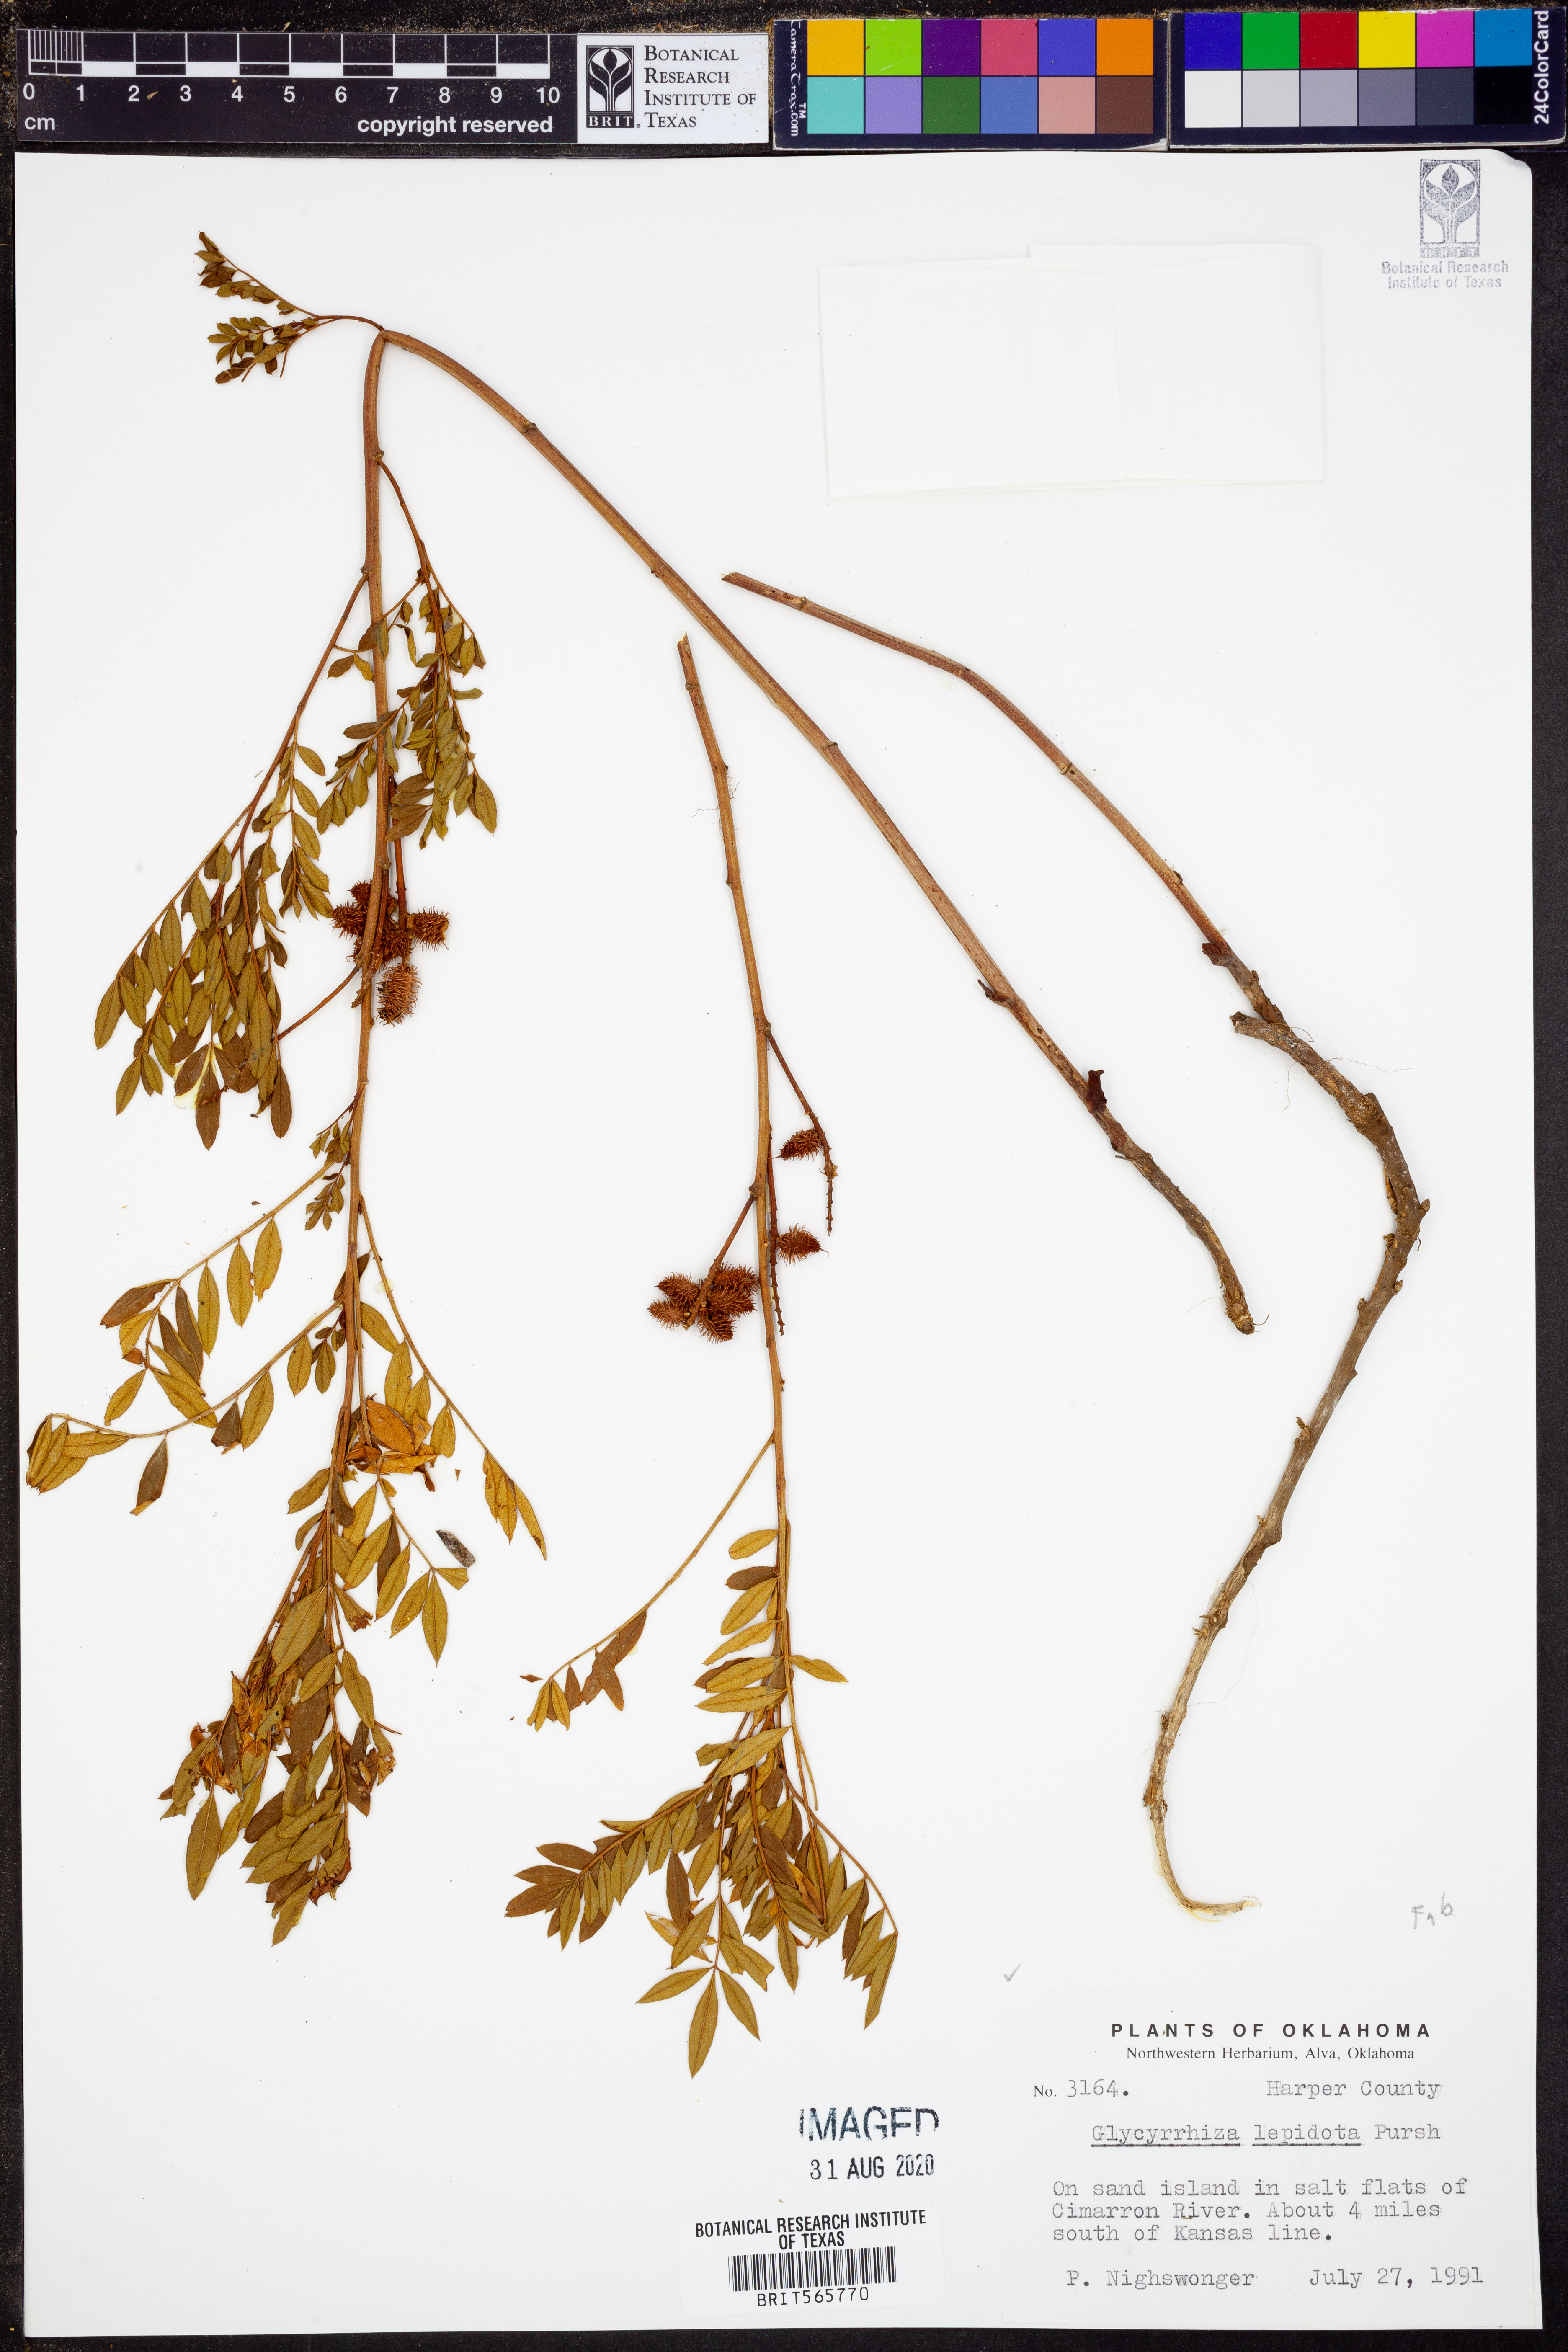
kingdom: Plantae
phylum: Tracheophyta
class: Magnoliopsida
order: Fabales
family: Fabaceae
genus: Glycyrrhiza
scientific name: Glycyrrhiza lepidota
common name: American liquorice
